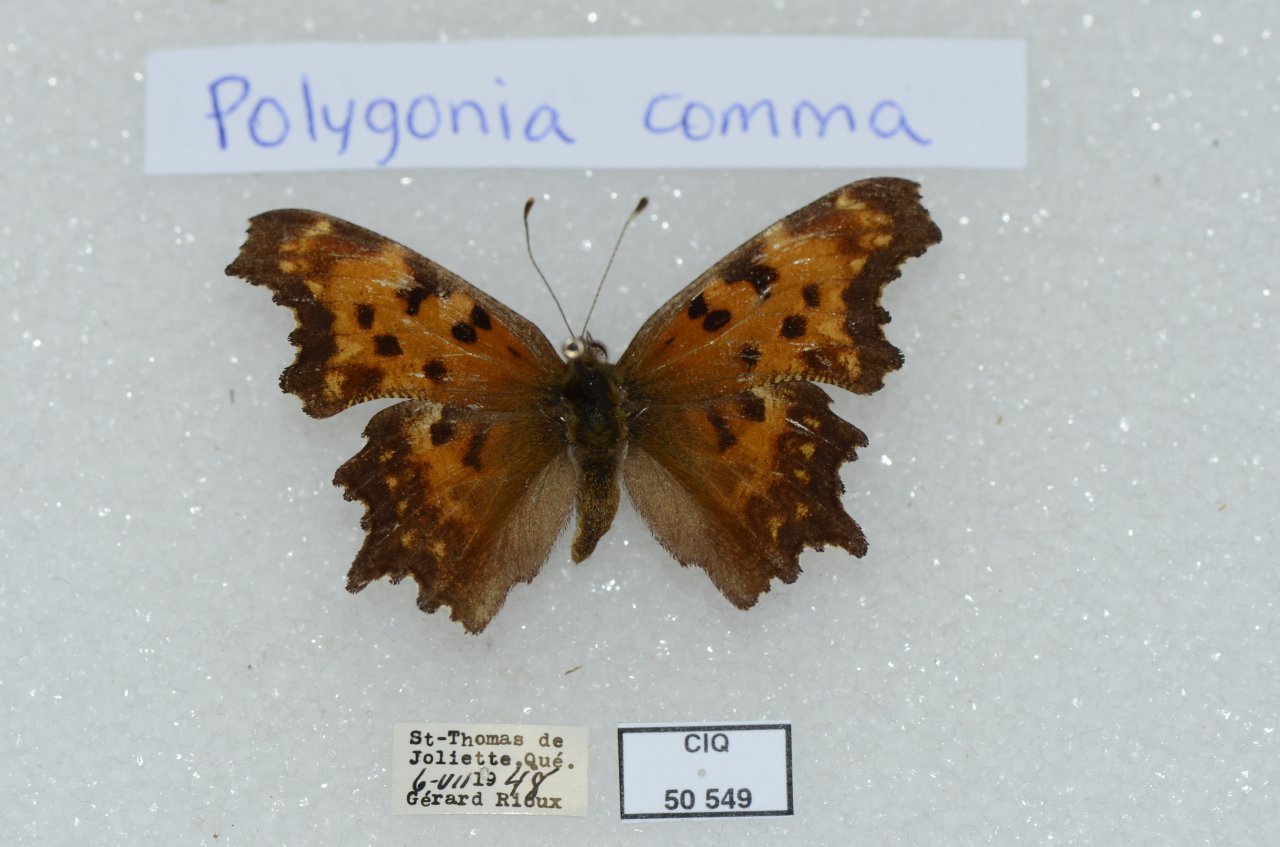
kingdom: Animalia
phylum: Arthropoda
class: Insecta
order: Lepidoptera
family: Nymphalidae
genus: Polygonia
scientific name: Polygonia gracilis
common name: Hoary Comma
